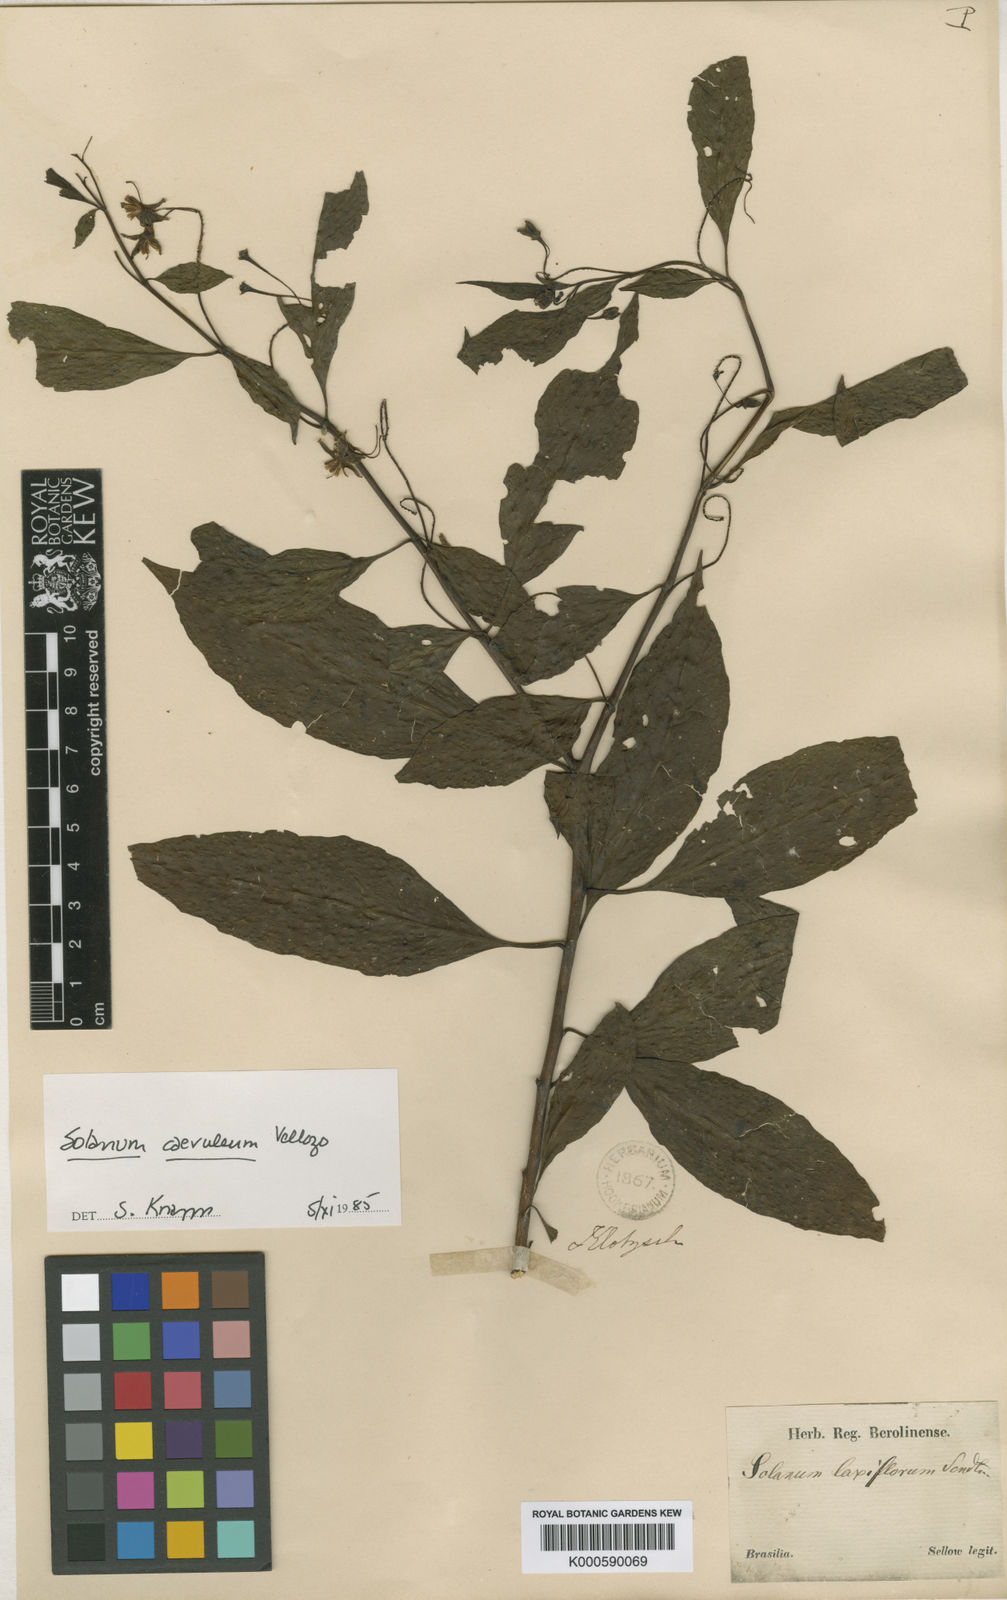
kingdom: Plantae
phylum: Tracheophyta
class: Magnoliopsida
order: Solanales
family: Solanaceae
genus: Solanum
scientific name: Solanum campaniforme
